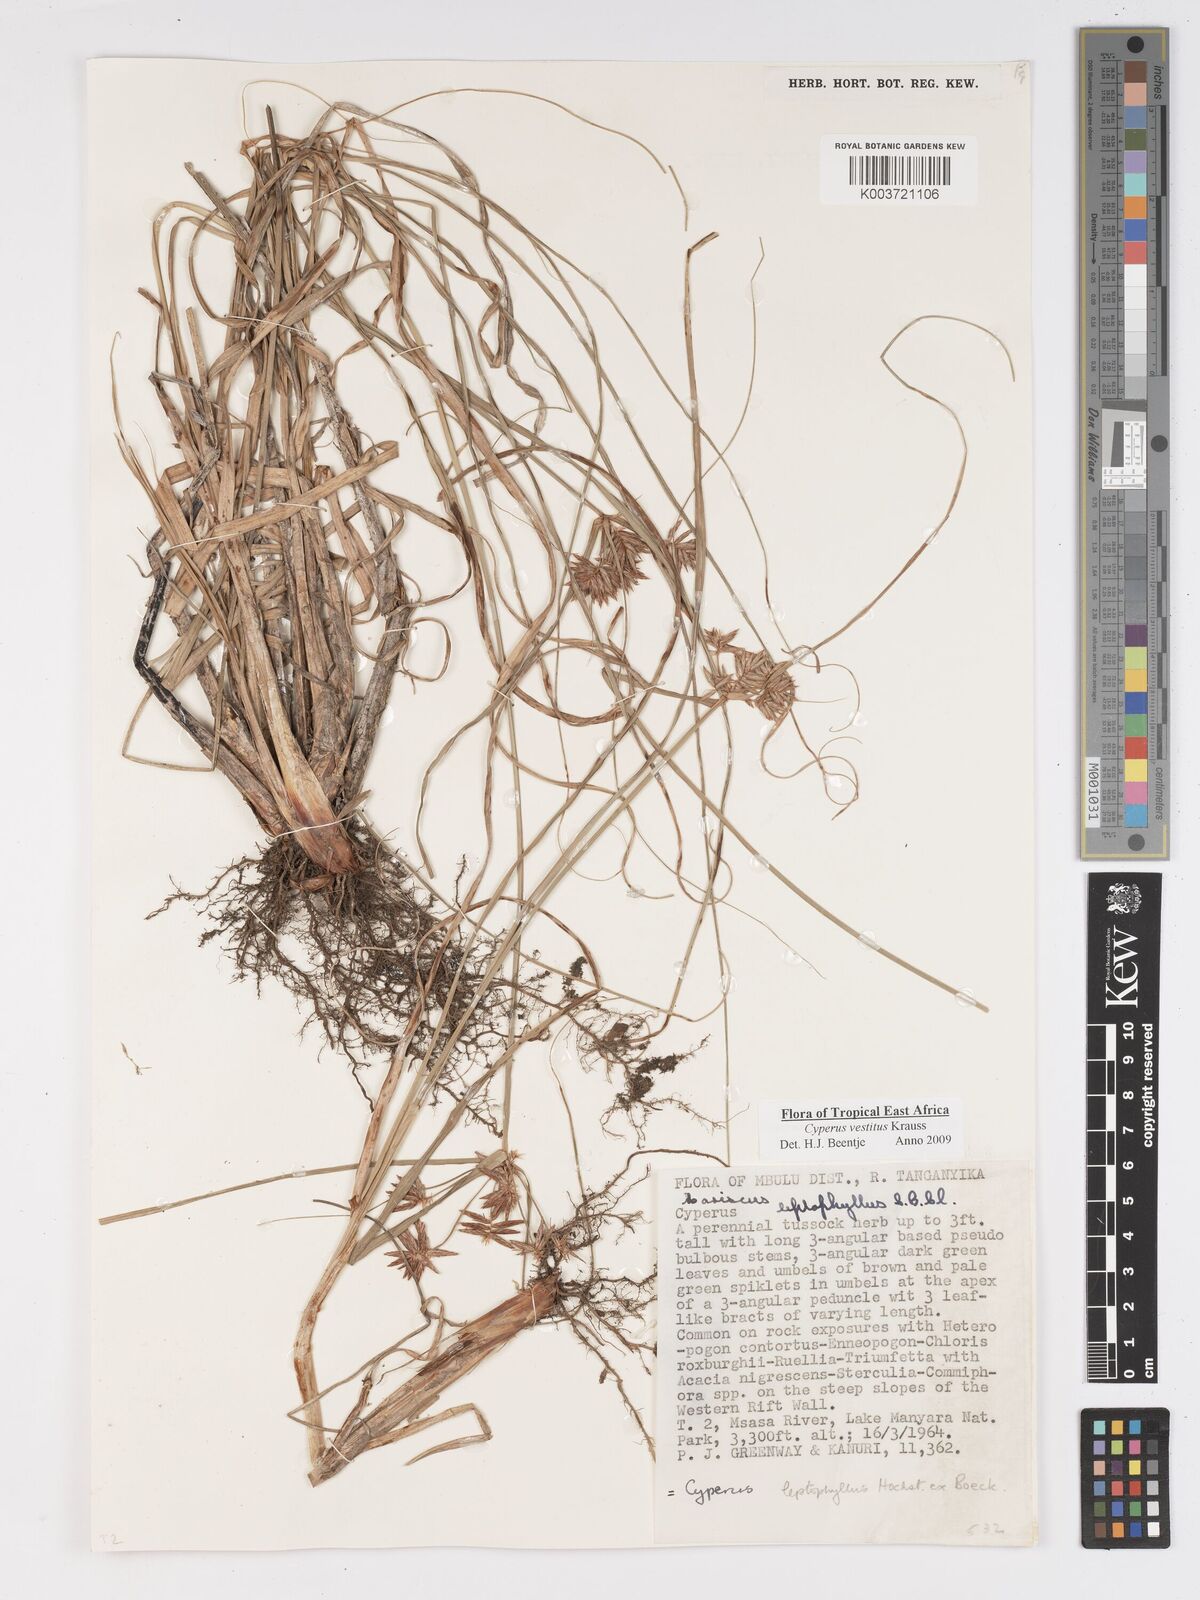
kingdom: Plantae
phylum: Tracheophyta
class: Liliopsida
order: Poales
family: Cyperaceae
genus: Cyperus
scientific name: Cyperus vestitus
